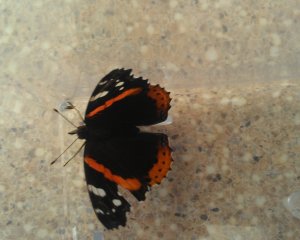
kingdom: Animalia
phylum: Arthropoda
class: Insecta
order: Lepidoptera
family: Nymphalidae
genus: Vanessa
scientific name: Vanessa atalanta
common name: Red Admiral
